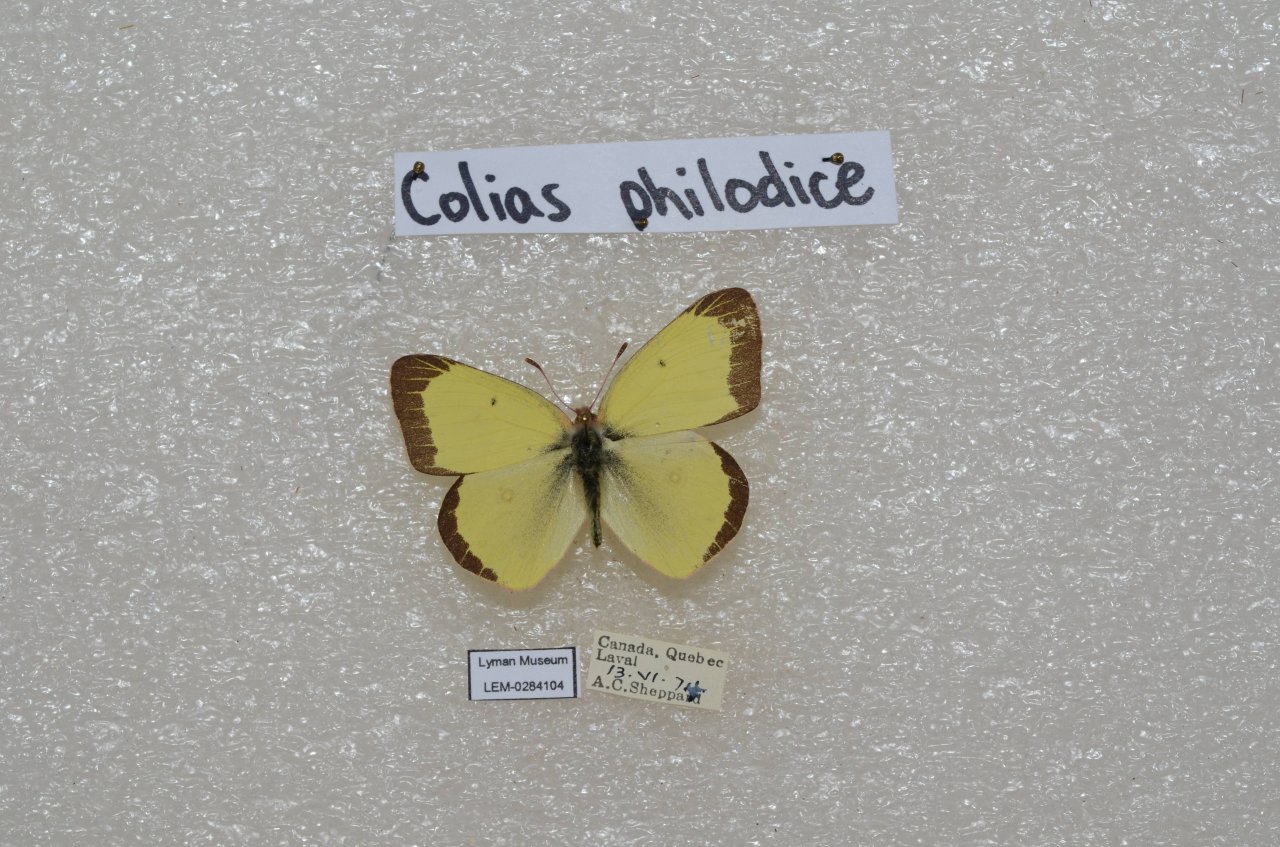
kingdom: Animalia
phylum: Arthropoda
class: Insecta
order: Lepidoptera
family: Pieridae
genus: Colias
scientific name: Colias philodice
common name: Clouded Sulphur
